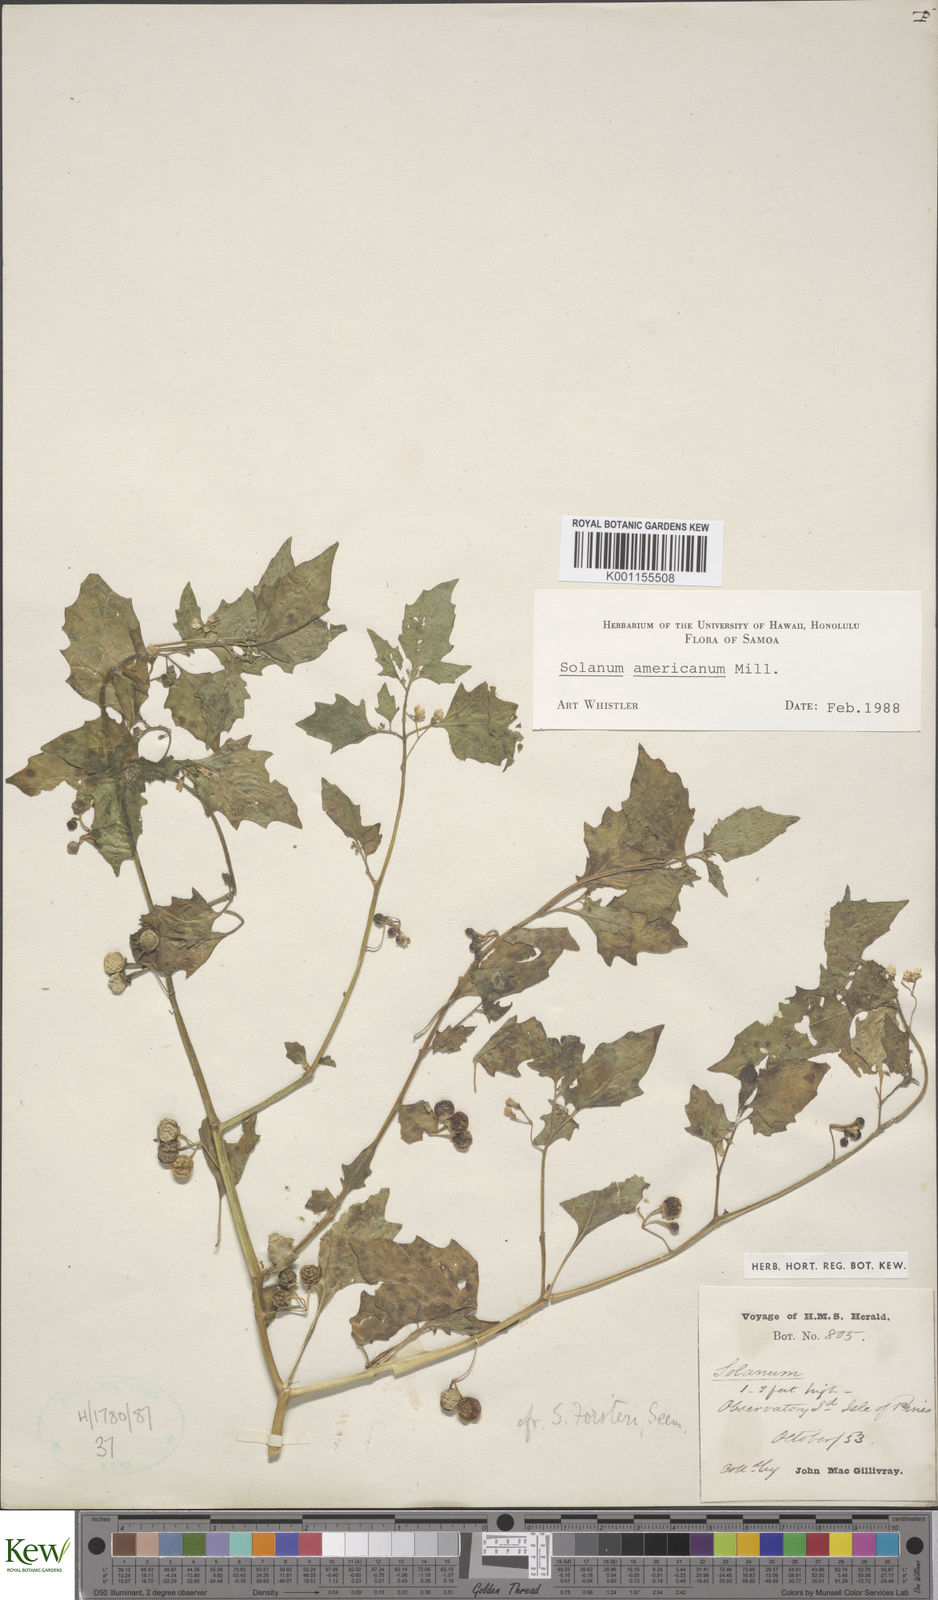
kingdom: Plantae
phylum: Tracheophyta
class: Magnoliopsida
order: Solanales
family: Solanaceae
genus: Solanum
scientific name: Solanum
